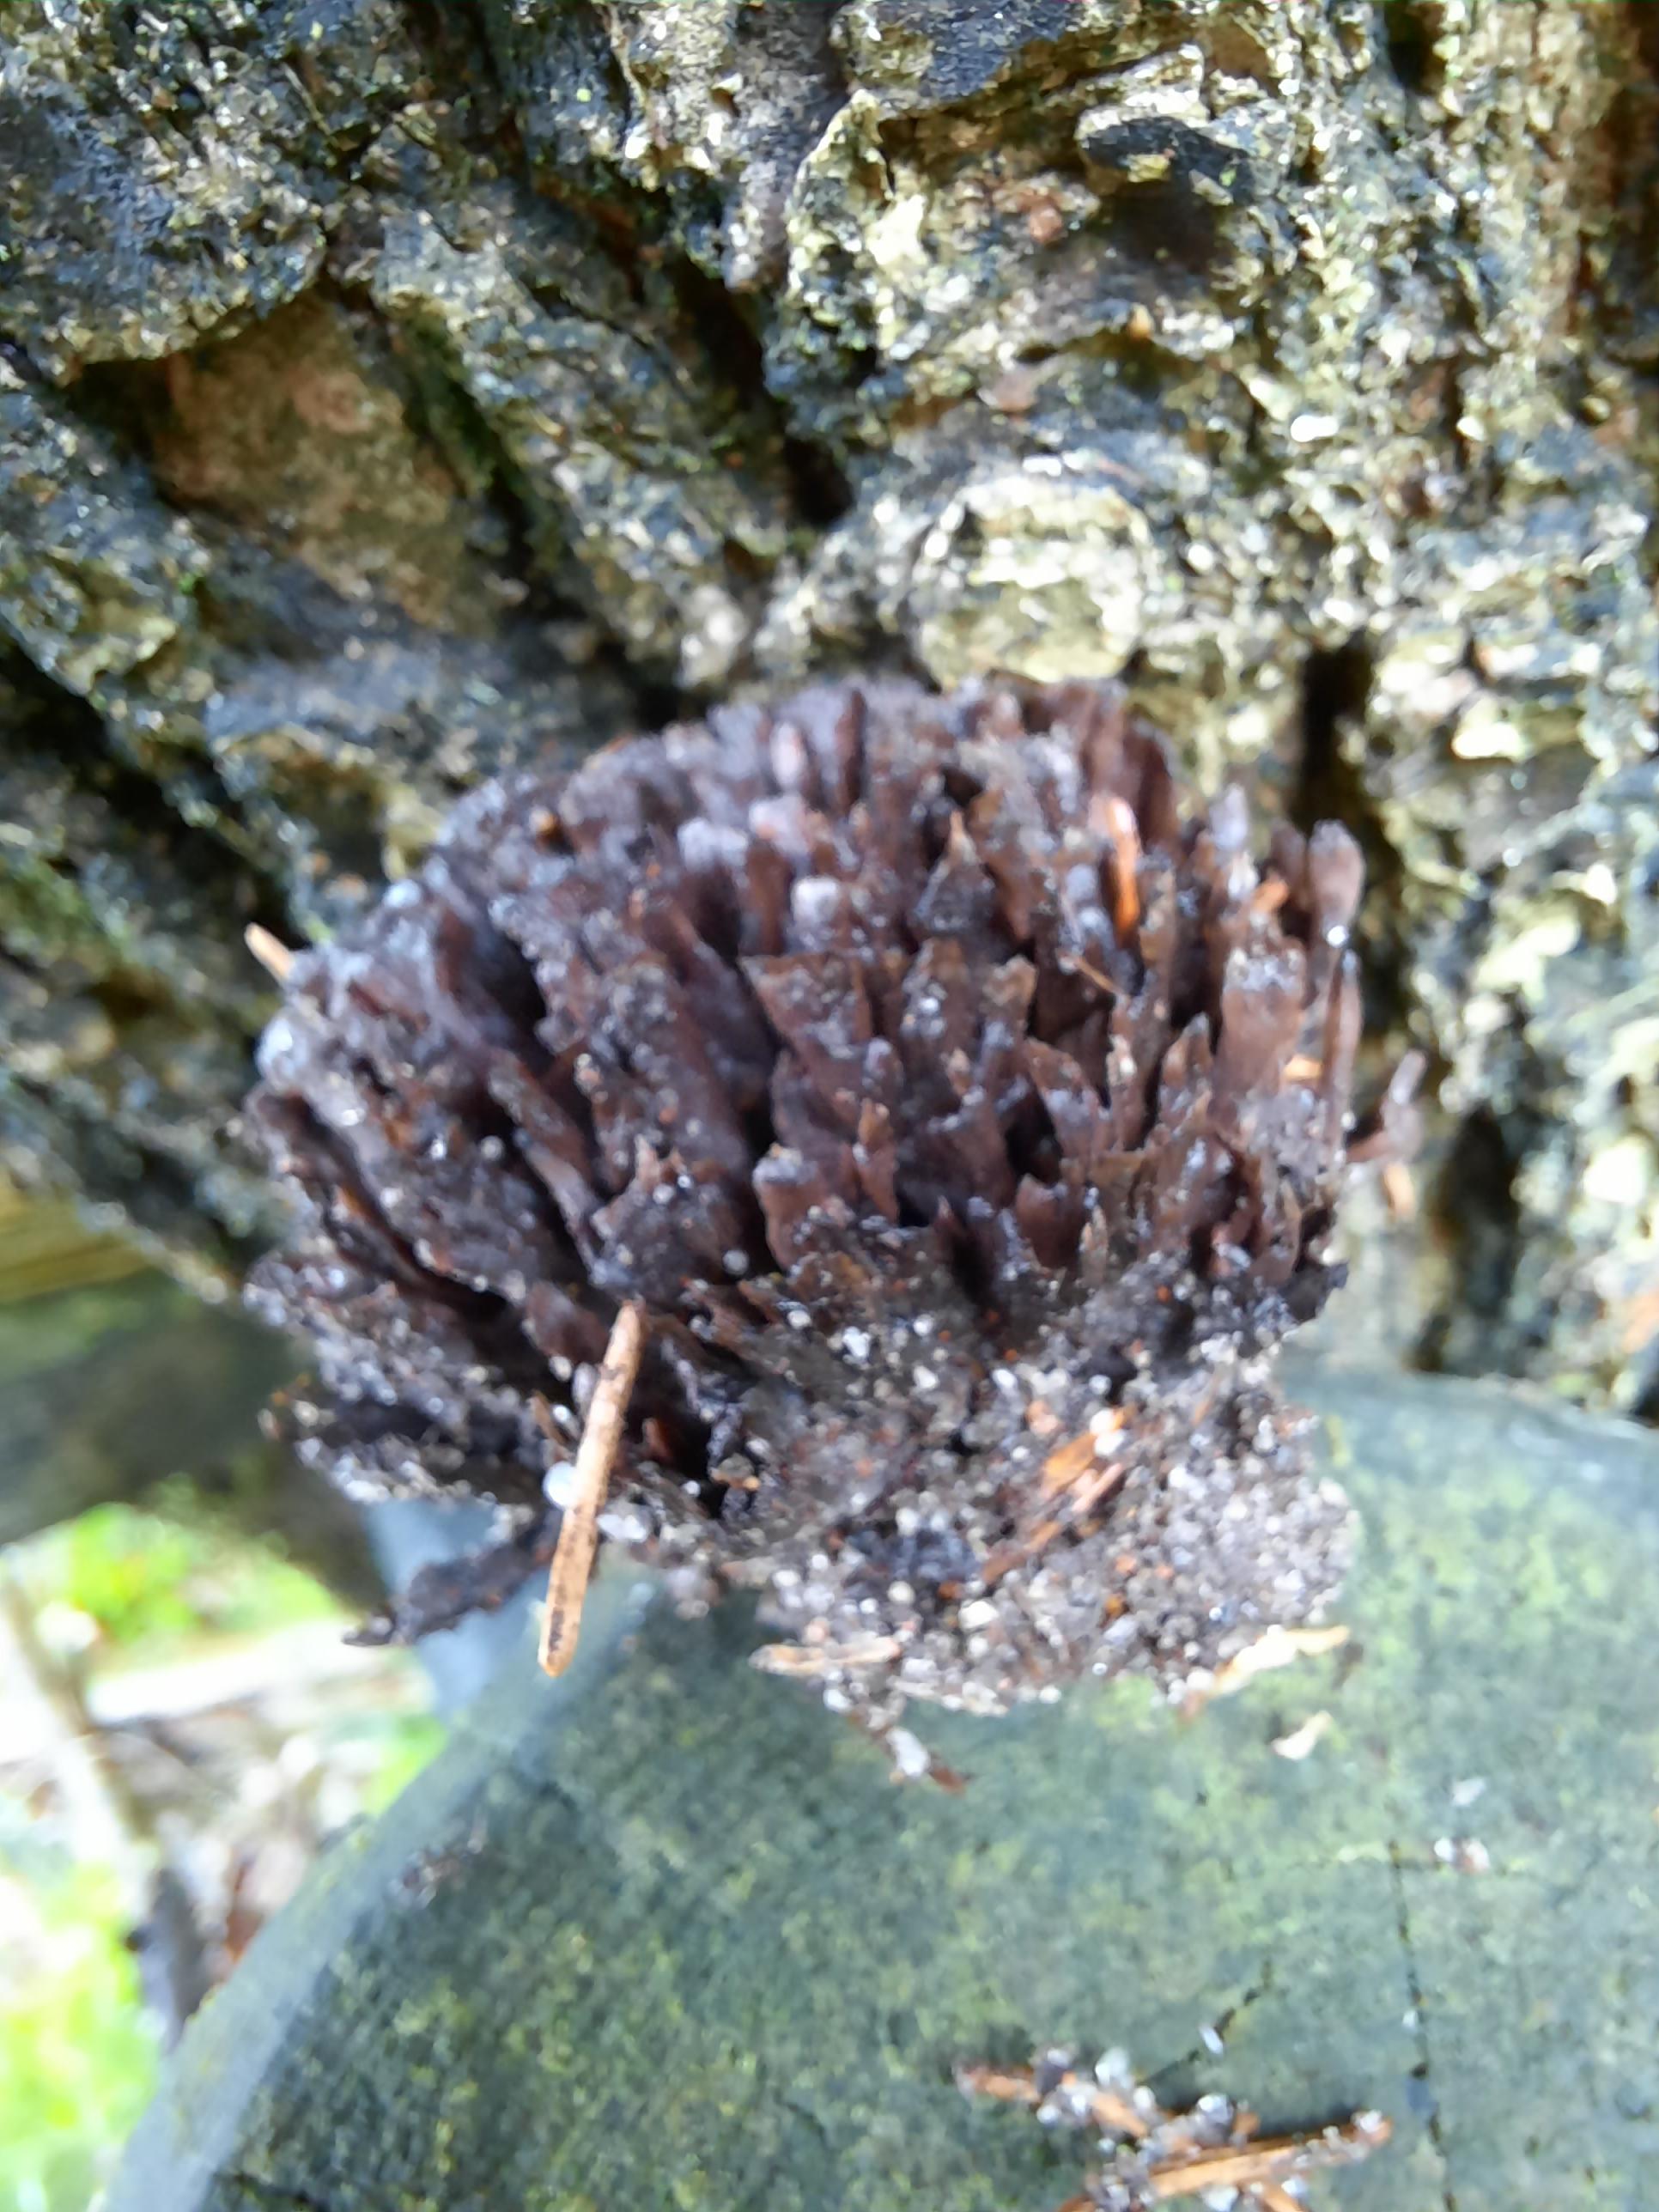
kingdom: Fungi
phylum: Basidiomycota
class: Agaricomycetes
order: Thelephorales
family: Thelephoraceae
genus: Thelephora
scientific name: Thelephora palmata
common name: grenet frynsesvamp
